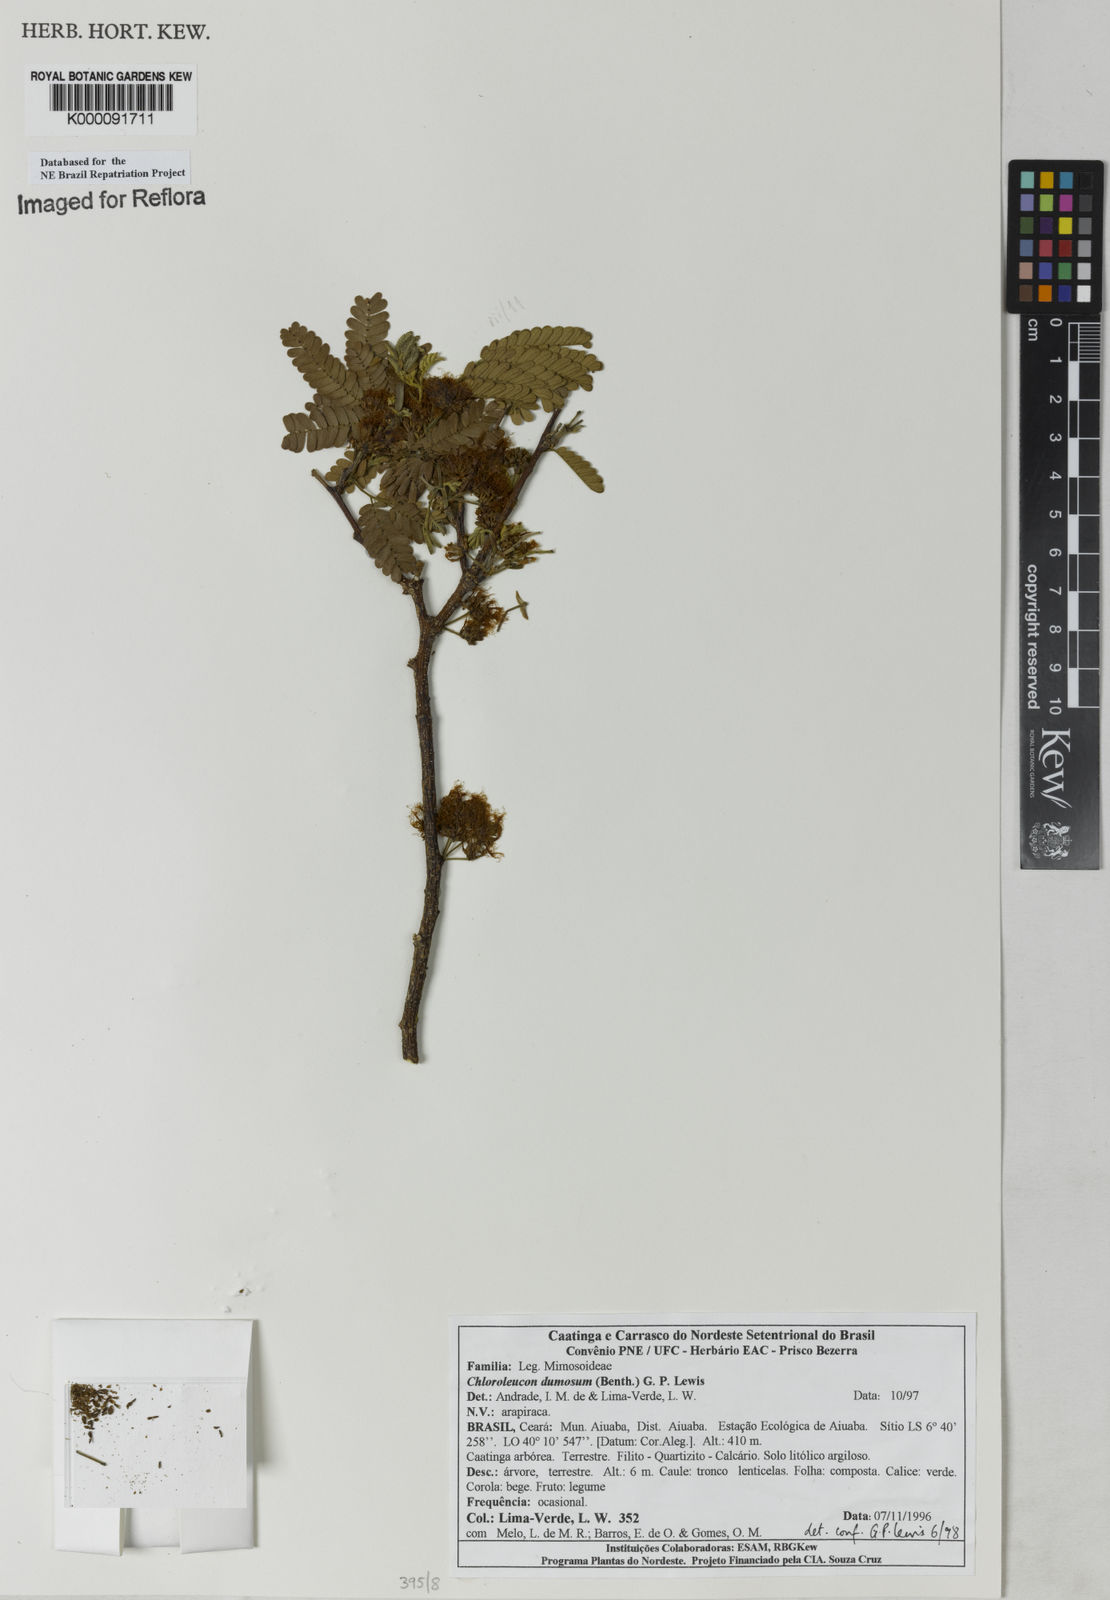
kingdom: Plantae
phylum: Tracheophyta
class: Magnoliopsida
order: Fabales
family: Fabaceae
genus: Chloroleucon
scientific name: Chloroleucon dumosum
